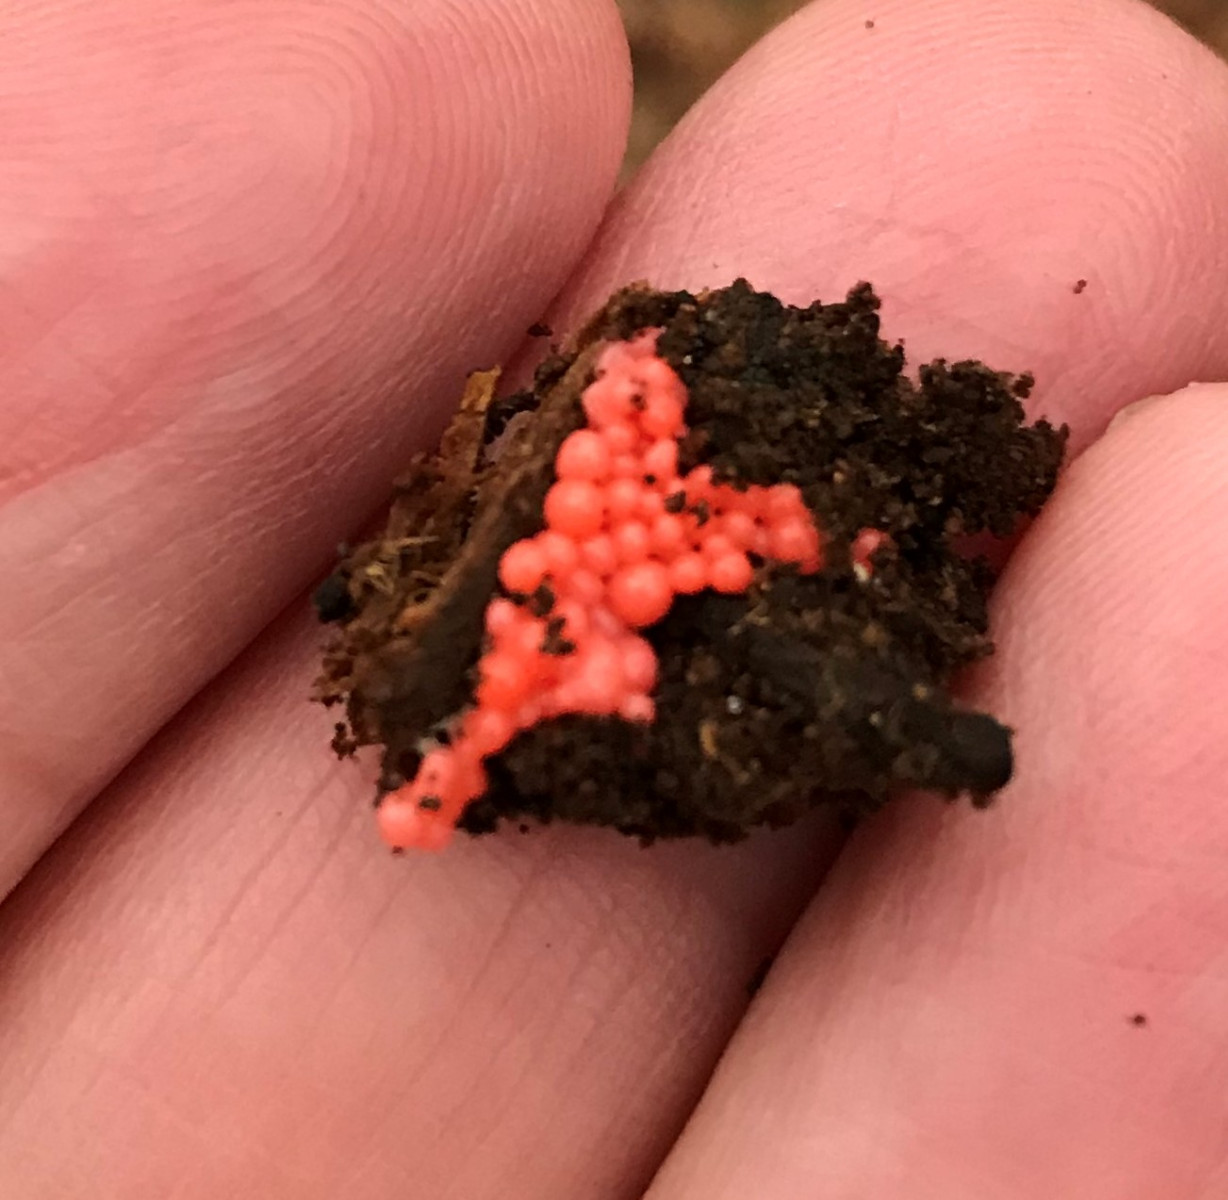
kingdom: Protozoa
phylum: Mycetozoa
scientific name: Mycetozoa
